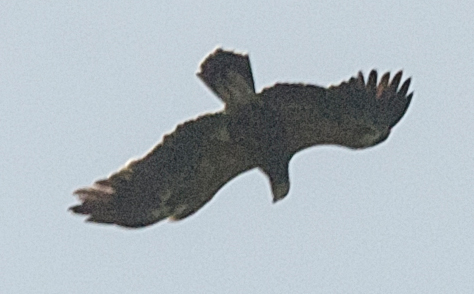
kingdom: Animalia
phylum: Chordata
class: Aves
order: Accipitriformes
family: Accipitridae
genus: Aquila
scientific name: Aquila chrysaetos
